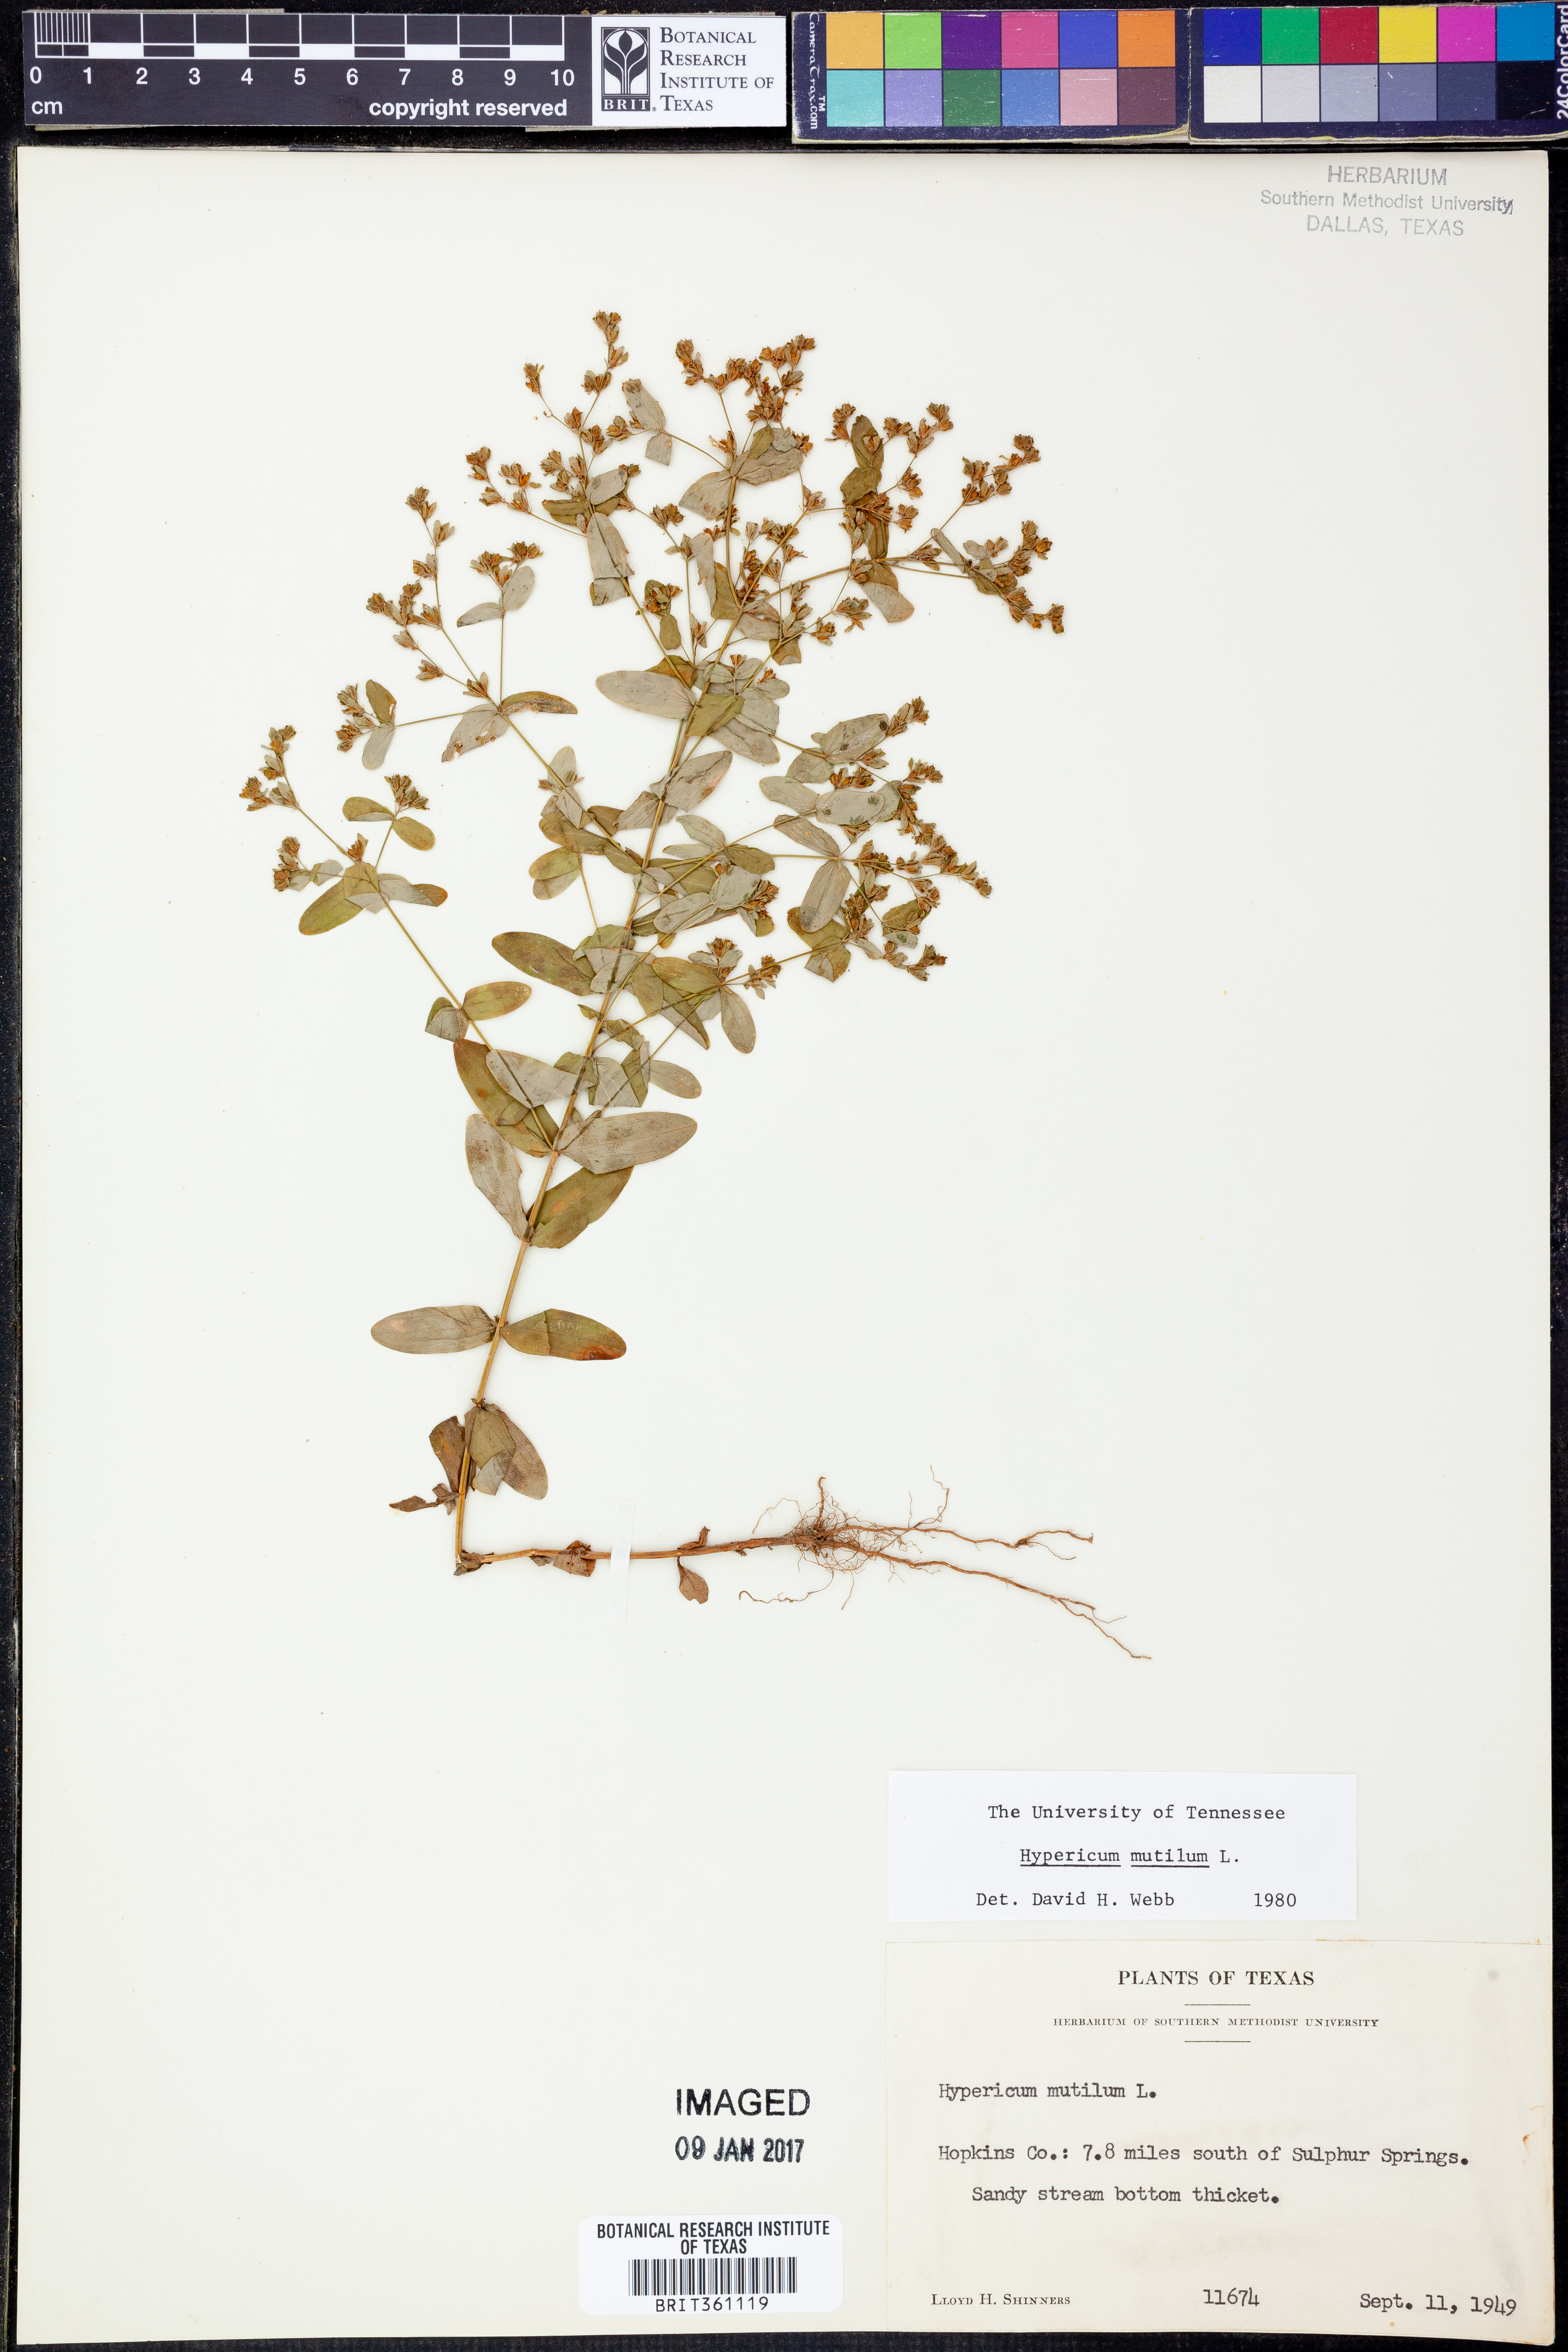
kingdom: Plantae
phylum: Tracheophyta
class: Magnoliopsida
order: Malpighiales
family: Hypericaceae
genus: Hypericum
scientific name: Hypericum mutilum
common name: Dwarf st. john's-wort
